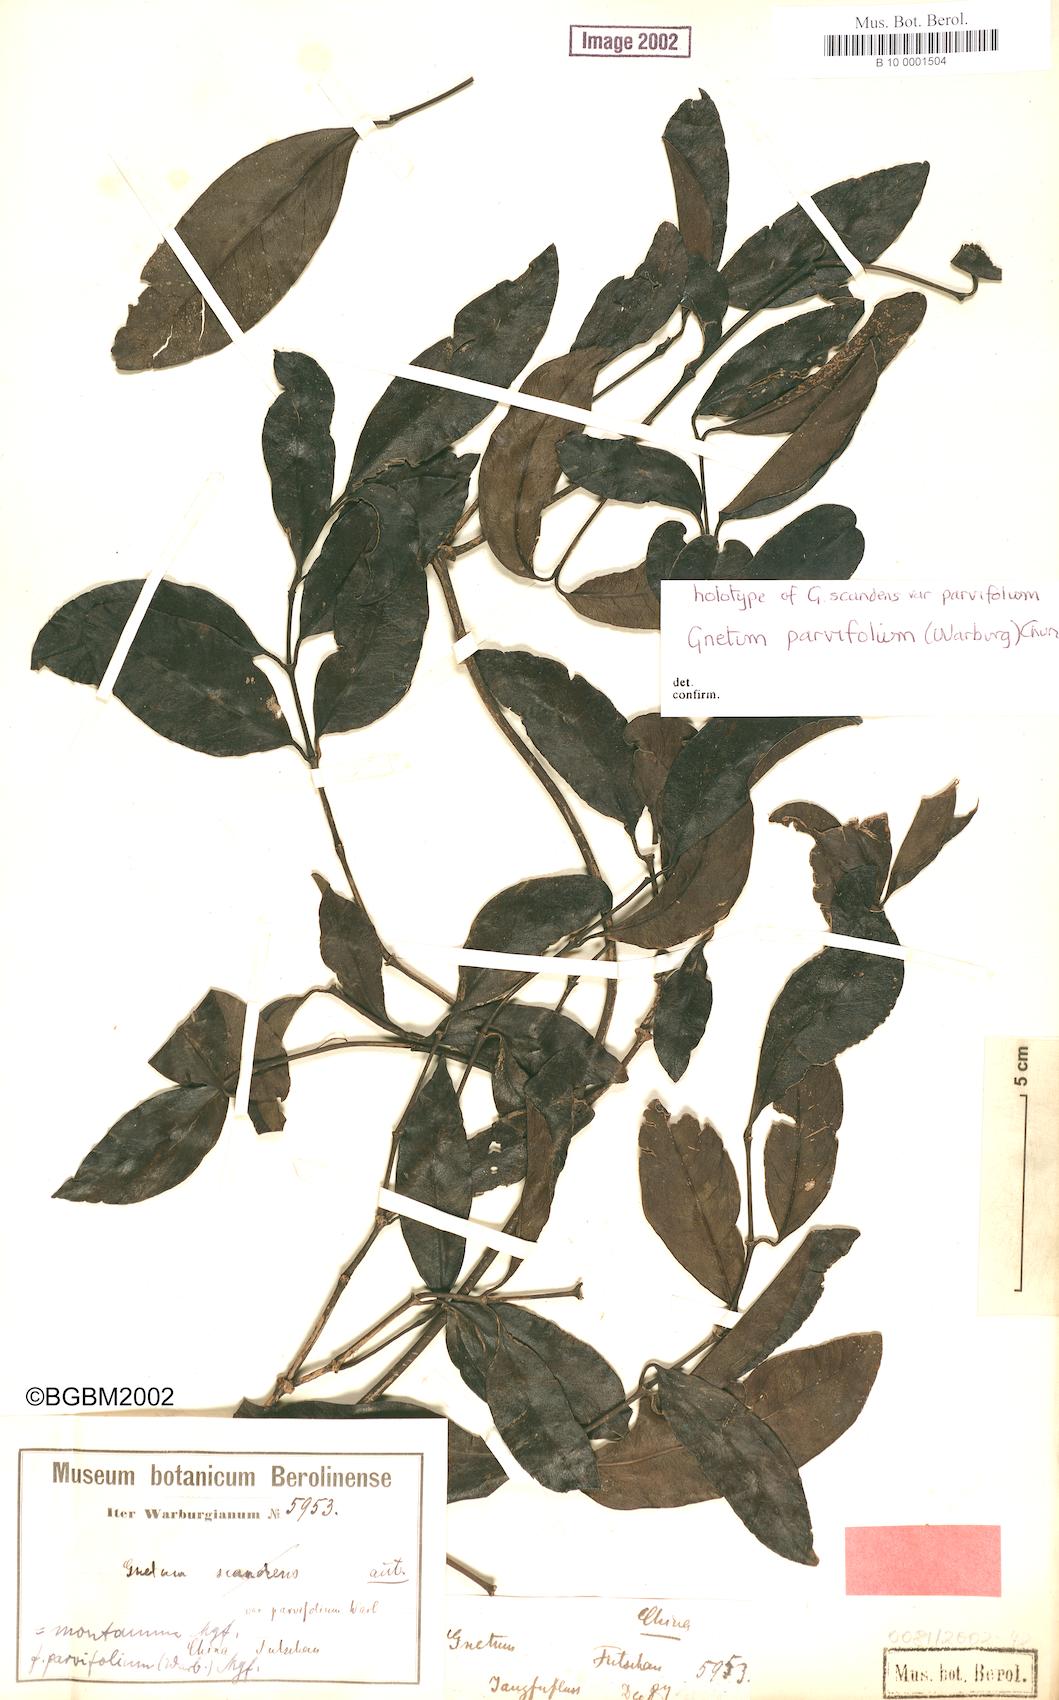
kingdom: Plantae
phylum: Tracheophyta
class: Gnetopsida
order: Gnetales
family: Gnetaceae
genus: Gnetum
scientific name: Gnetum parvifolium
